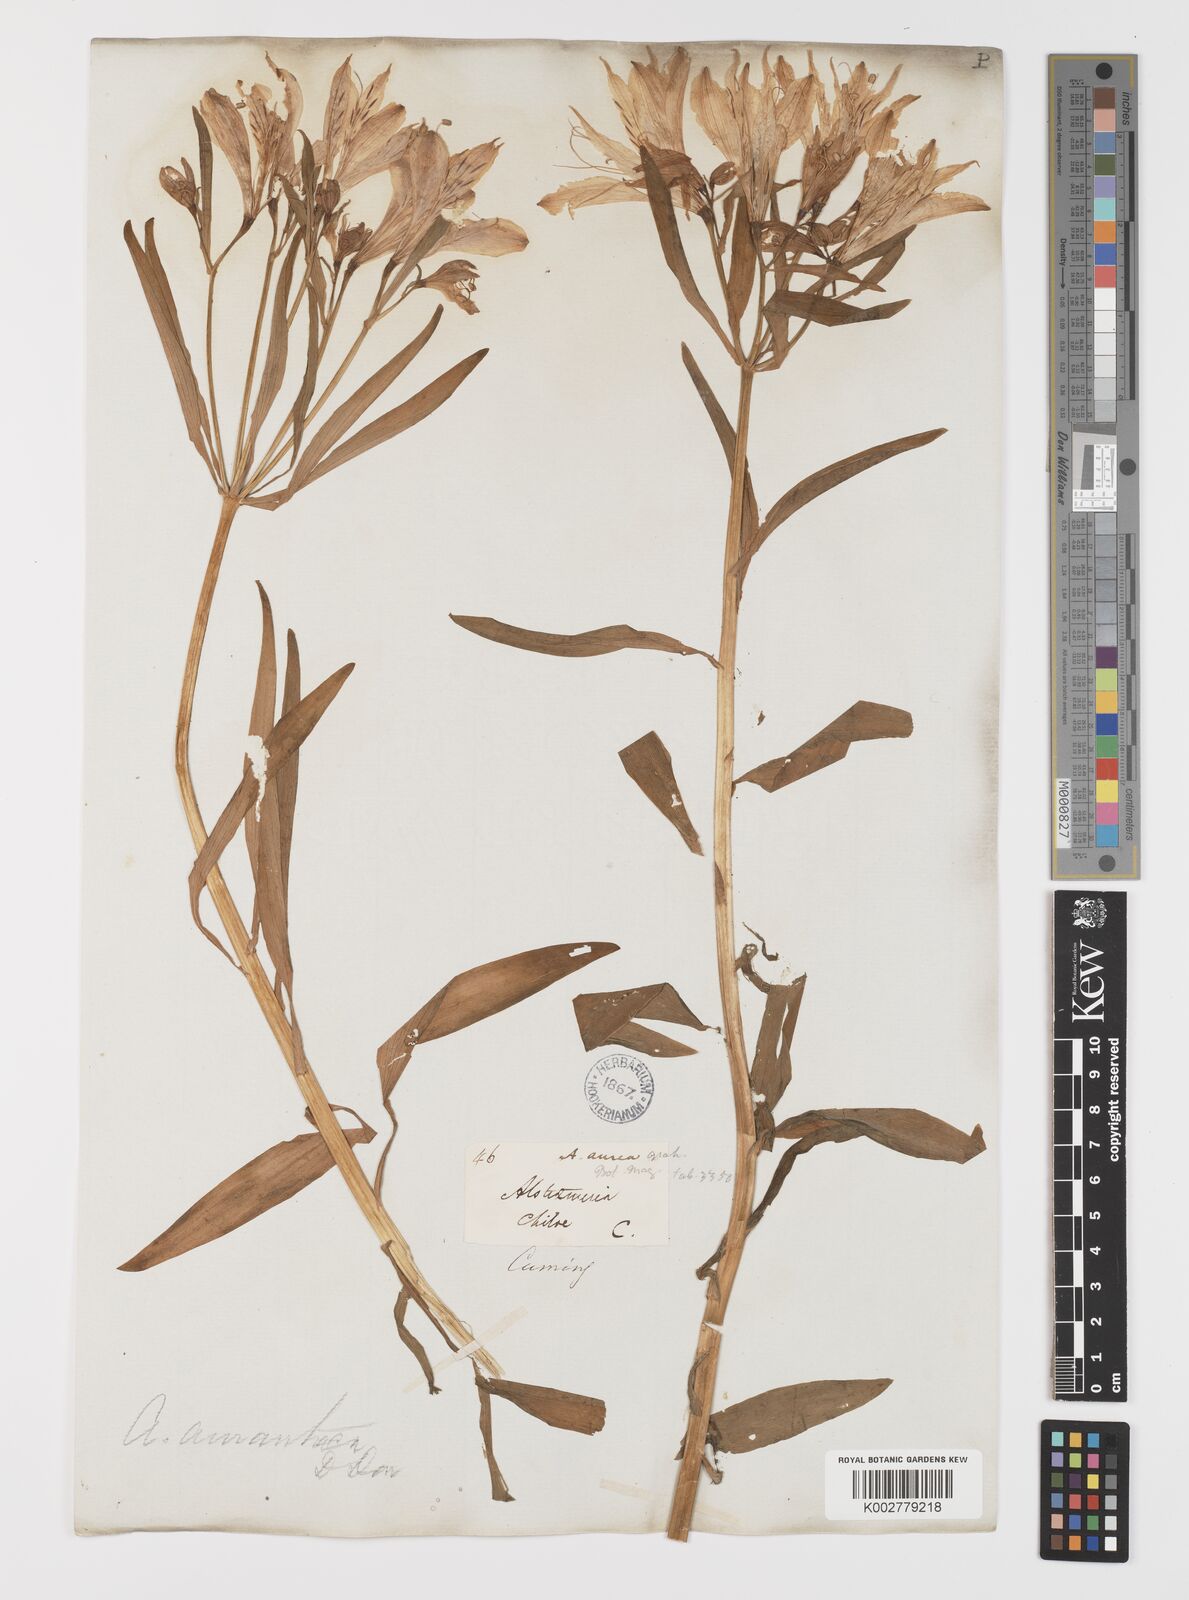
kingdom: Plantae
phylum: Tracheophyta
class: Liliopsida
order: Liliales
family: Alstroemeriaceae
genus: Alstroemeria
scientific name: Alstroemeria aurea
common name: Peruvian lily
